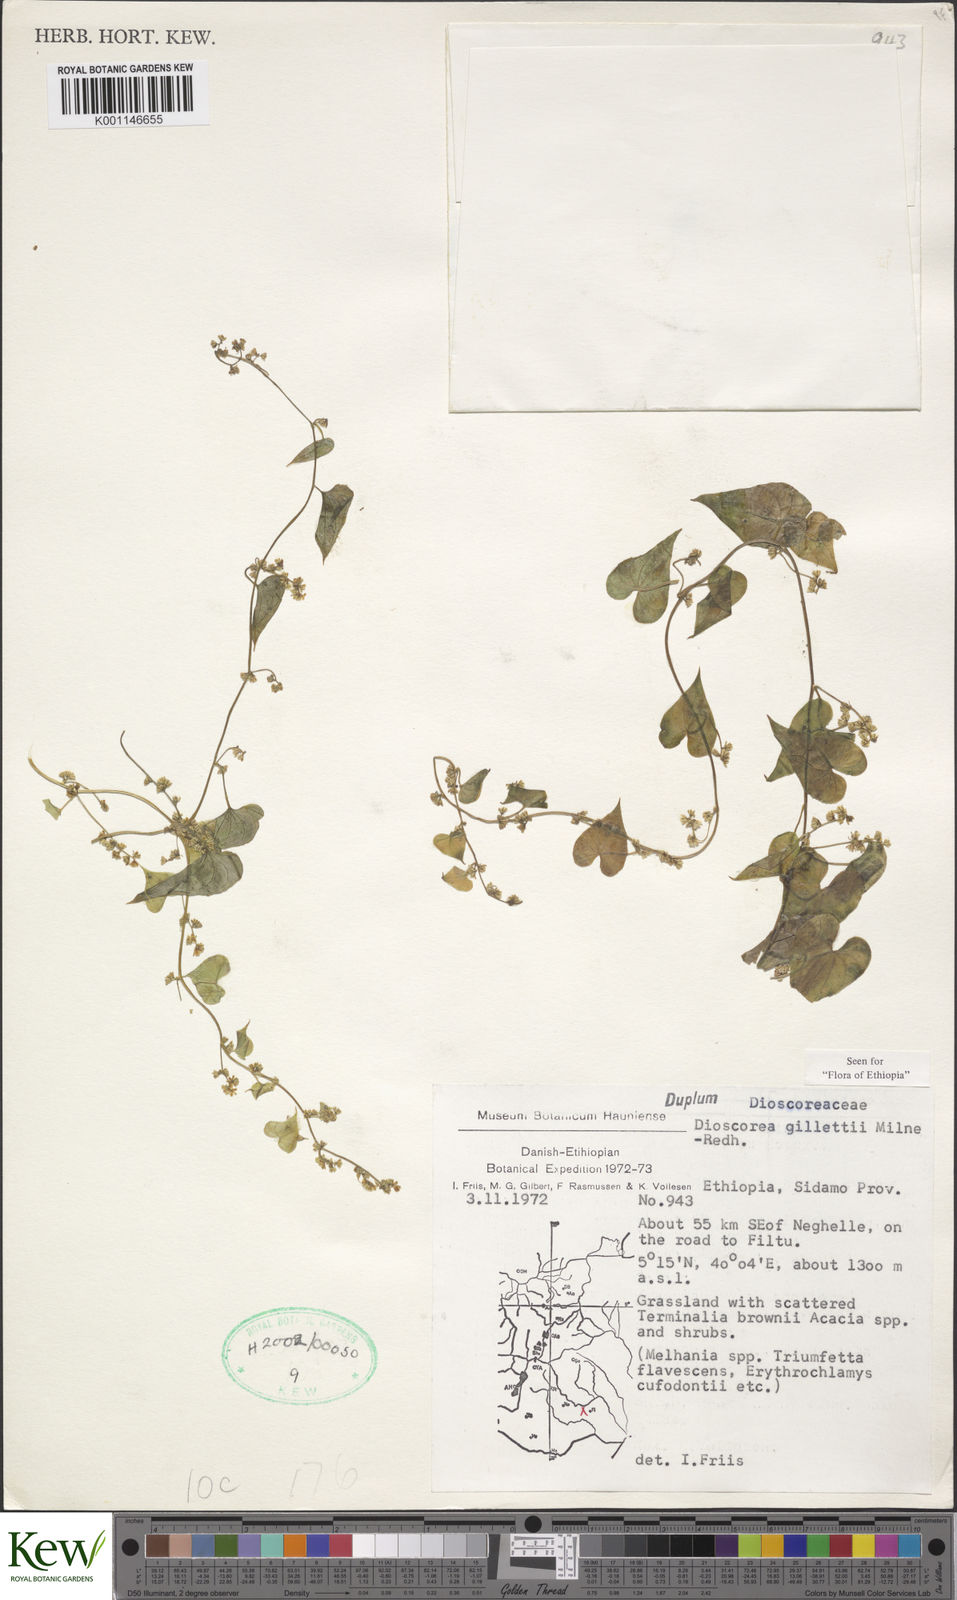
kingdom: Plantae
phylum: Tracheophyta
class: Liliopsida
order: Dioscoreales
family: Dioscoreaceae
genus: Dioscorea
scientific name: Dioscorea gillettii
